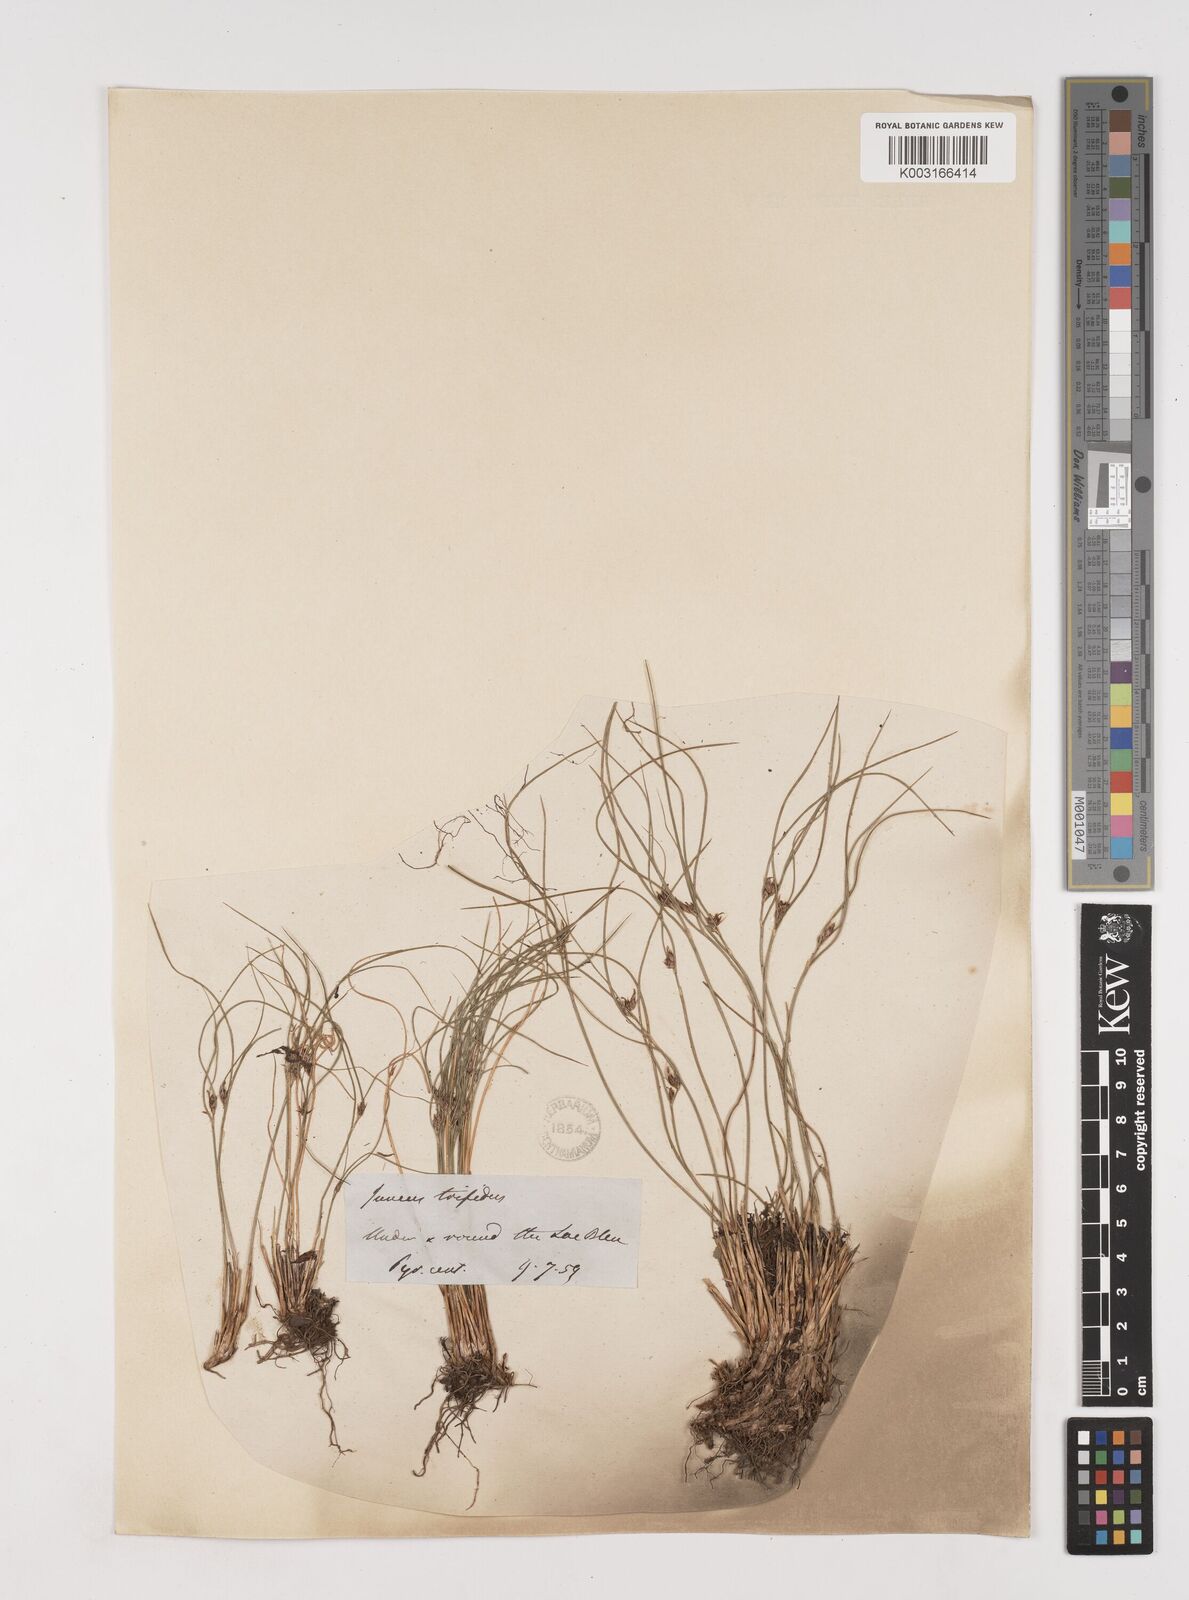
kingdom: Plantae
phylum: Tracheophyta
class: Liliopsida
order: Poales
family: Juncaceae
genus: Oreojuncus
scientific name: Oreojuncus trifidus
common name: Highland rush
